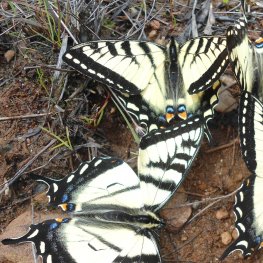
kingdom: Animalia
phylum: Arthropoda
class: Insecta
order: Lepidoptera
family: Papilionidae
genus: Pterourus
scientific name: Pterourus canadensis
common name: Canadian Tiger Swallowtail
